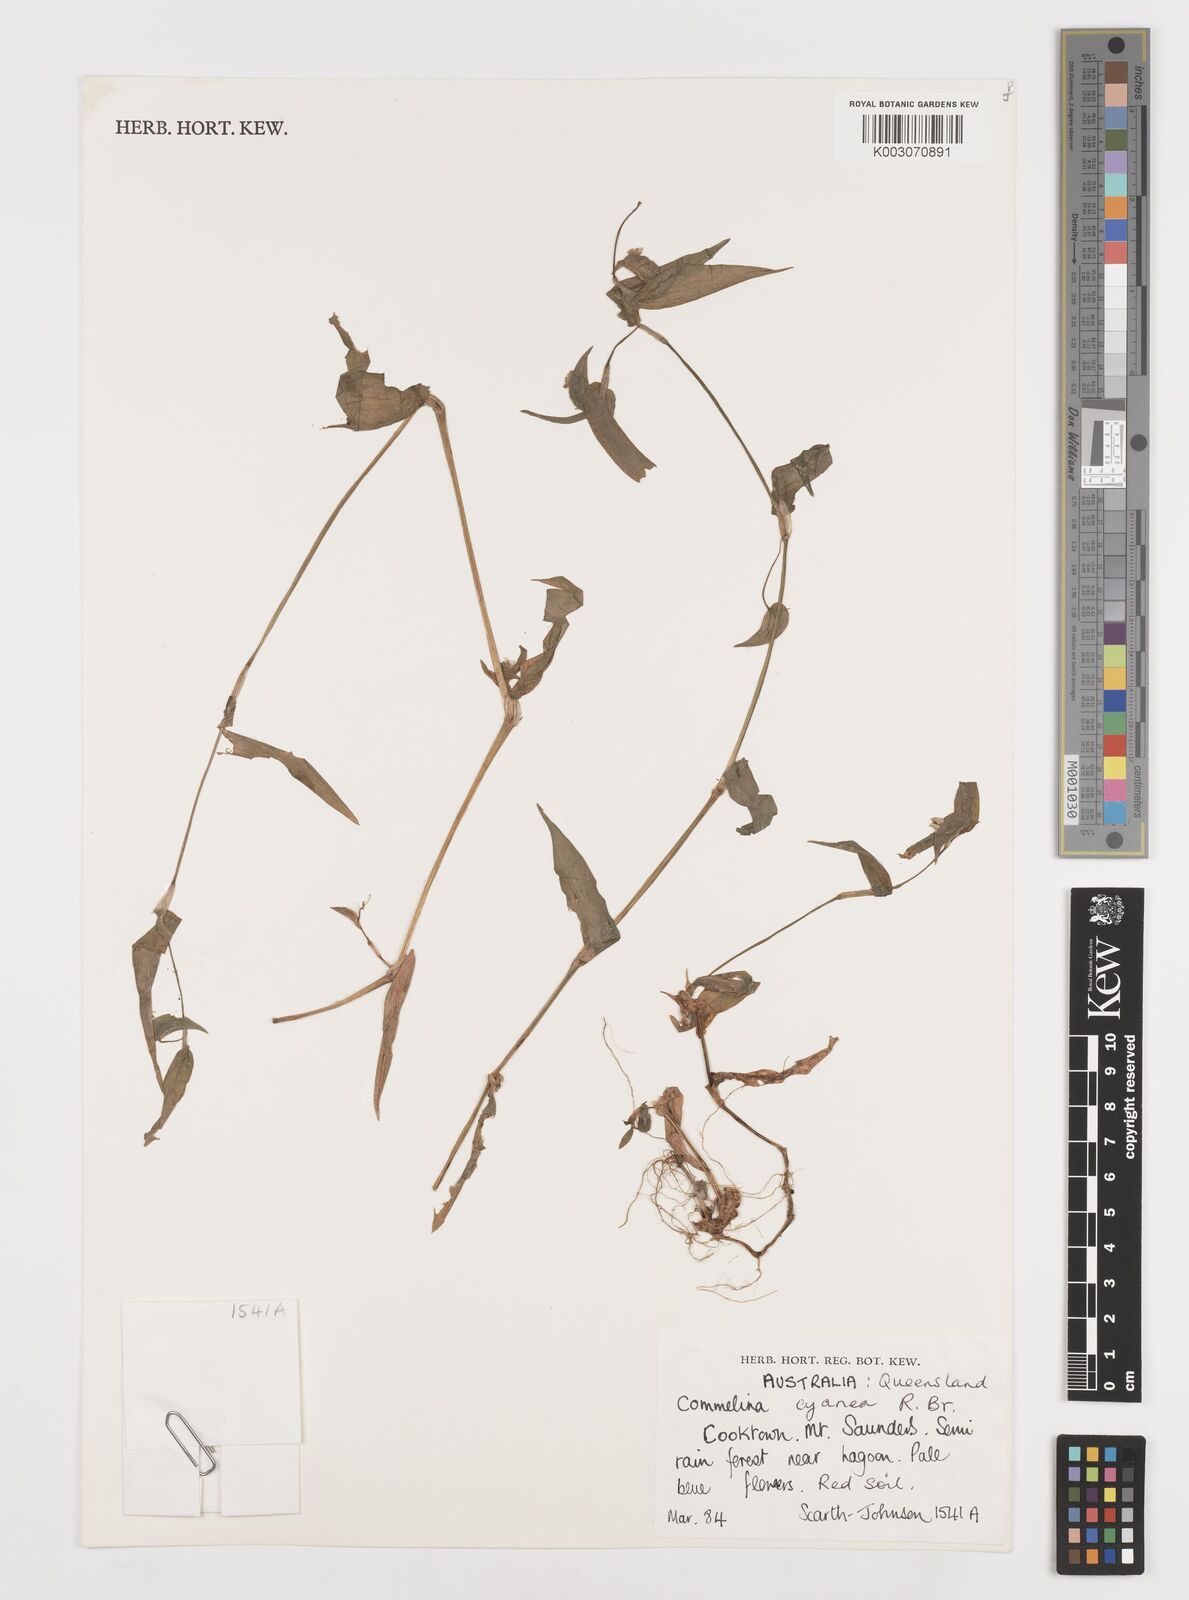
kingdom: Plantae
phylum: Tracheophyta
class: Liliopsida
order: Commelinales
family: Commelinaceae
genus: Commelina
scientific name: Commelina cyanea
